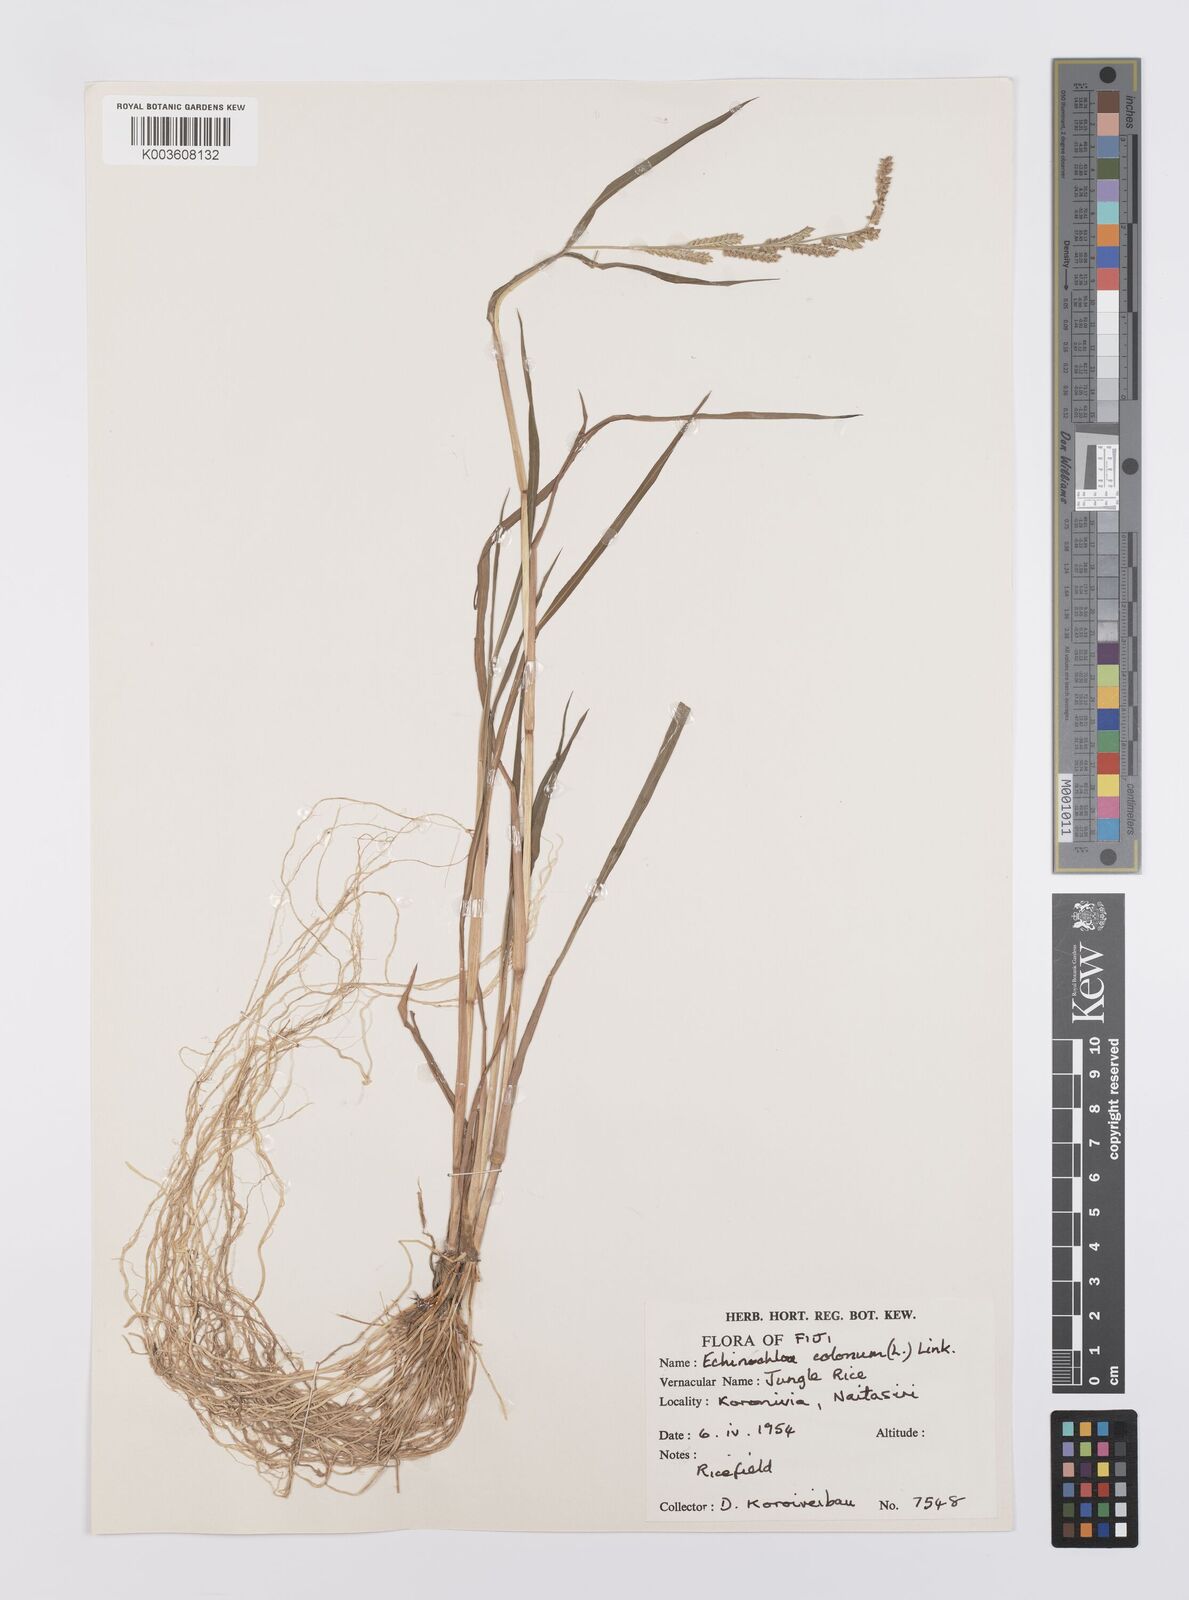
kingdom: Plantae
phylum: Tracheophyta
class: Liliopsida
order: Poales
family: Poaceae
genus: Echinochloa
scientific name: Echinochloa colonum
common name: Jungle rice
